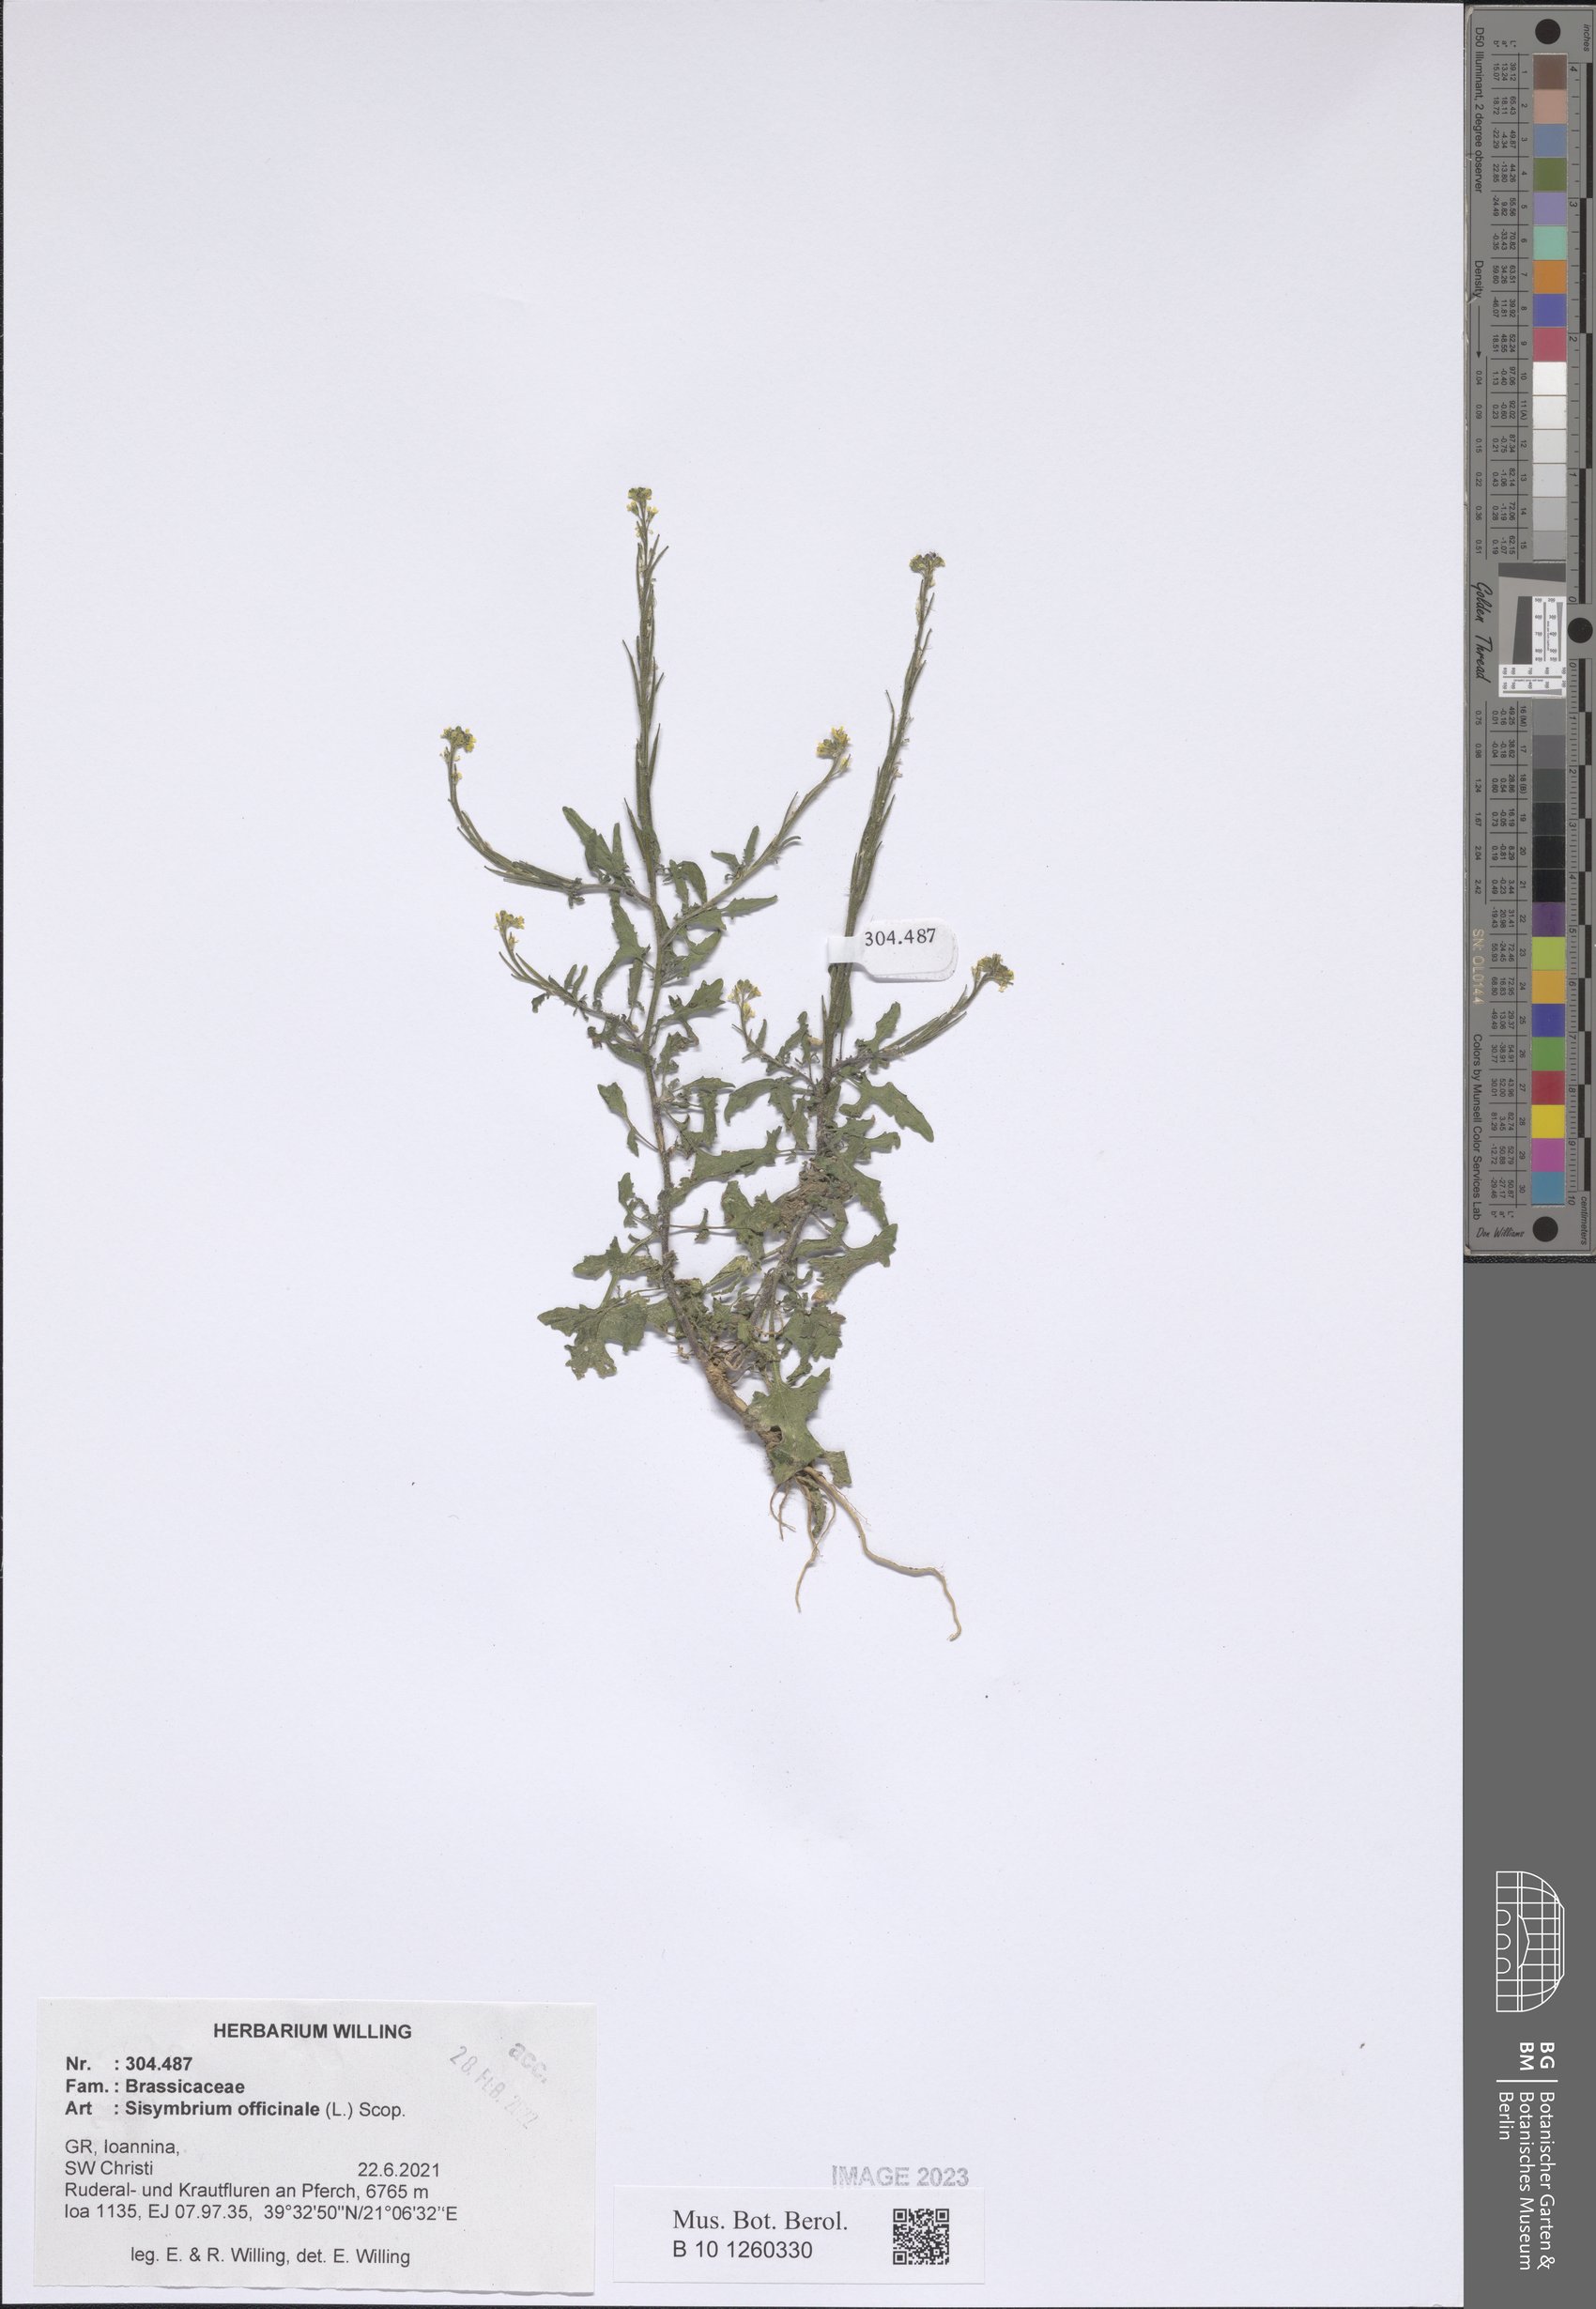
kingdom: Plantae
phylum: Tracheophyta
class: Magnoliopsida
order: Brassicales
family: Brassicaceae
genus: Sisymbrium
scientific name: Sisymbrium officinale
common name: Hedge mustard
